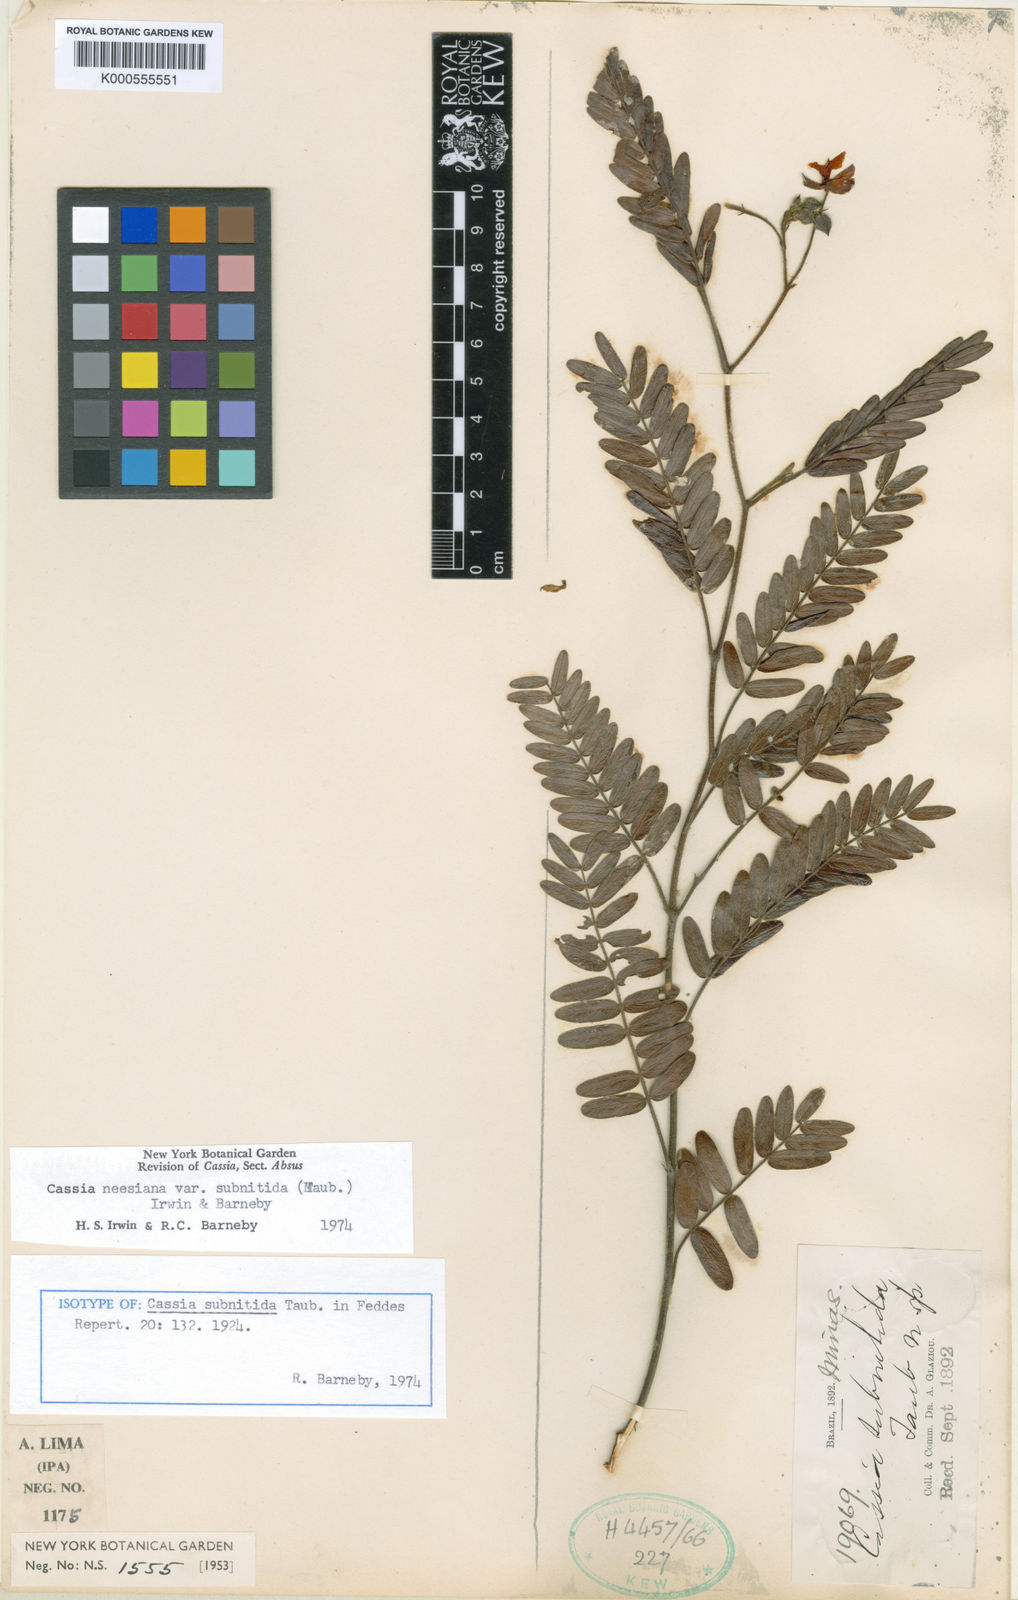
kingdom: Plantae
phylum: Tracheophyta
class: Magnoliopsida
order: Fabales
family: Fabaceae
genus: Chamaecrista
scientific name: Chamaecrista neesiana
